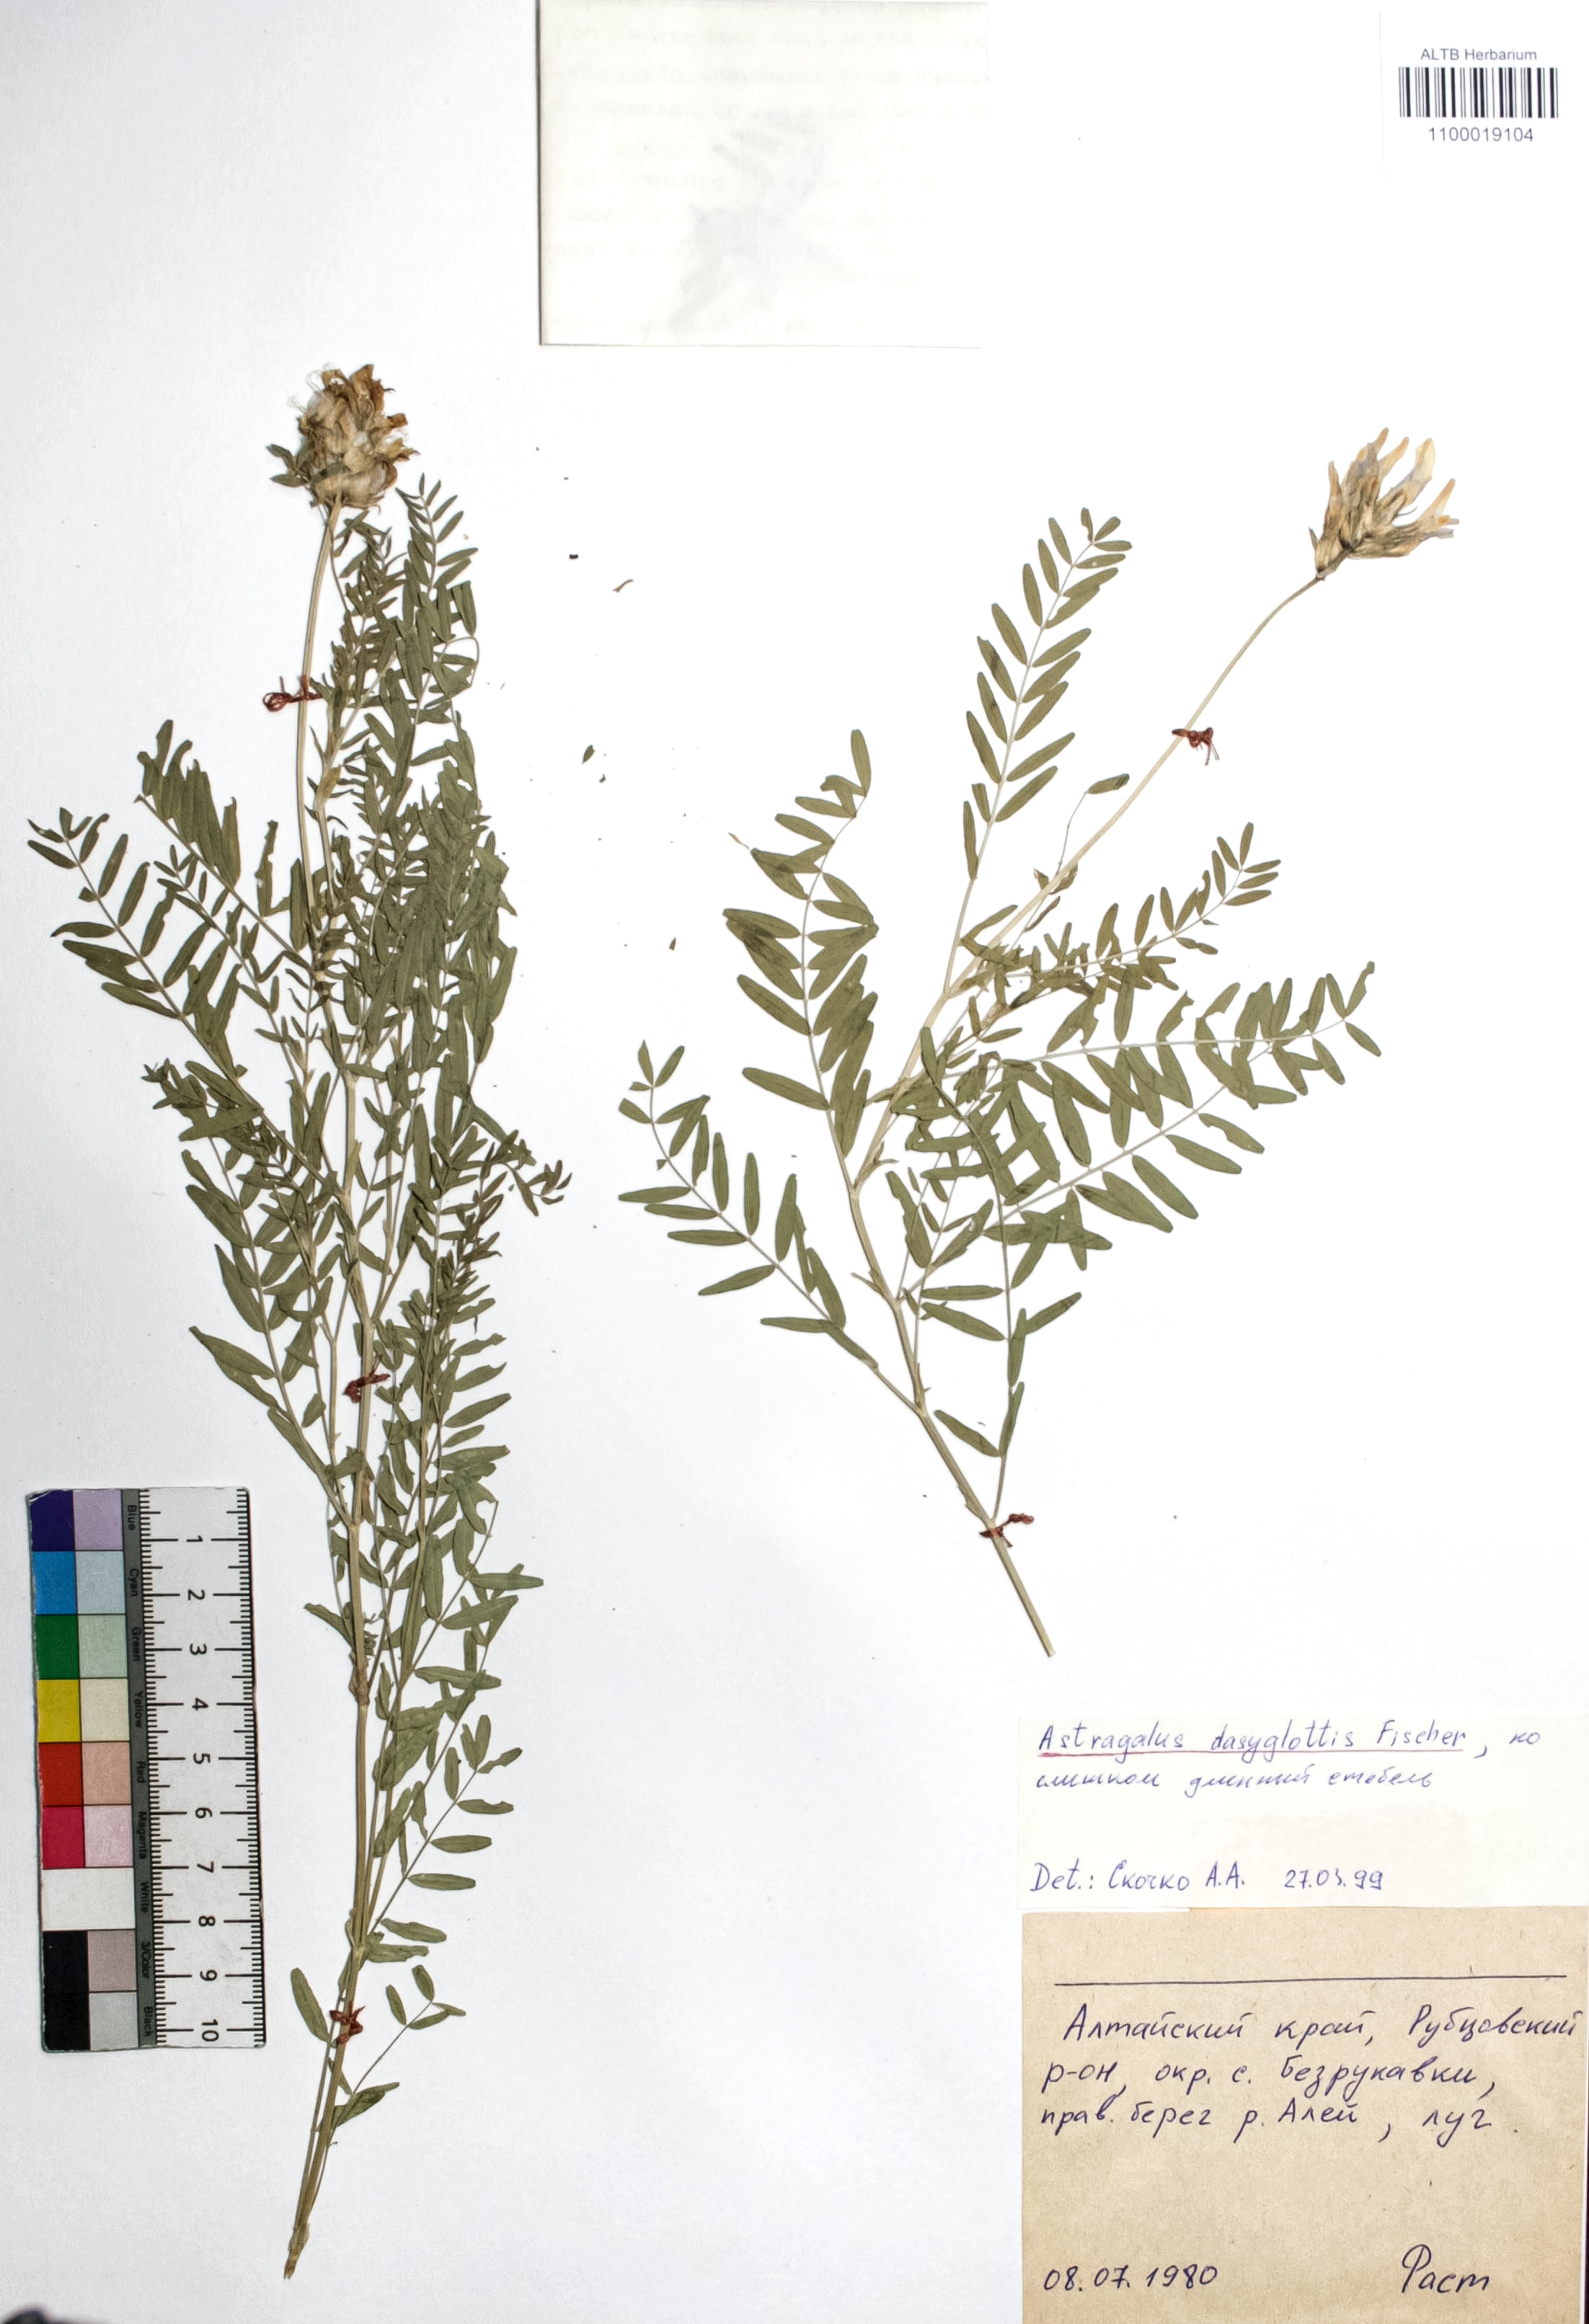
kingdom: Plantae
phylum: Tracheophyta
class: Magnoliopsida
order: Fabales
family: Fabaceae
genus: Astragalus
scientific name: Astragalus agrestis
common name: Field milk-vetch
